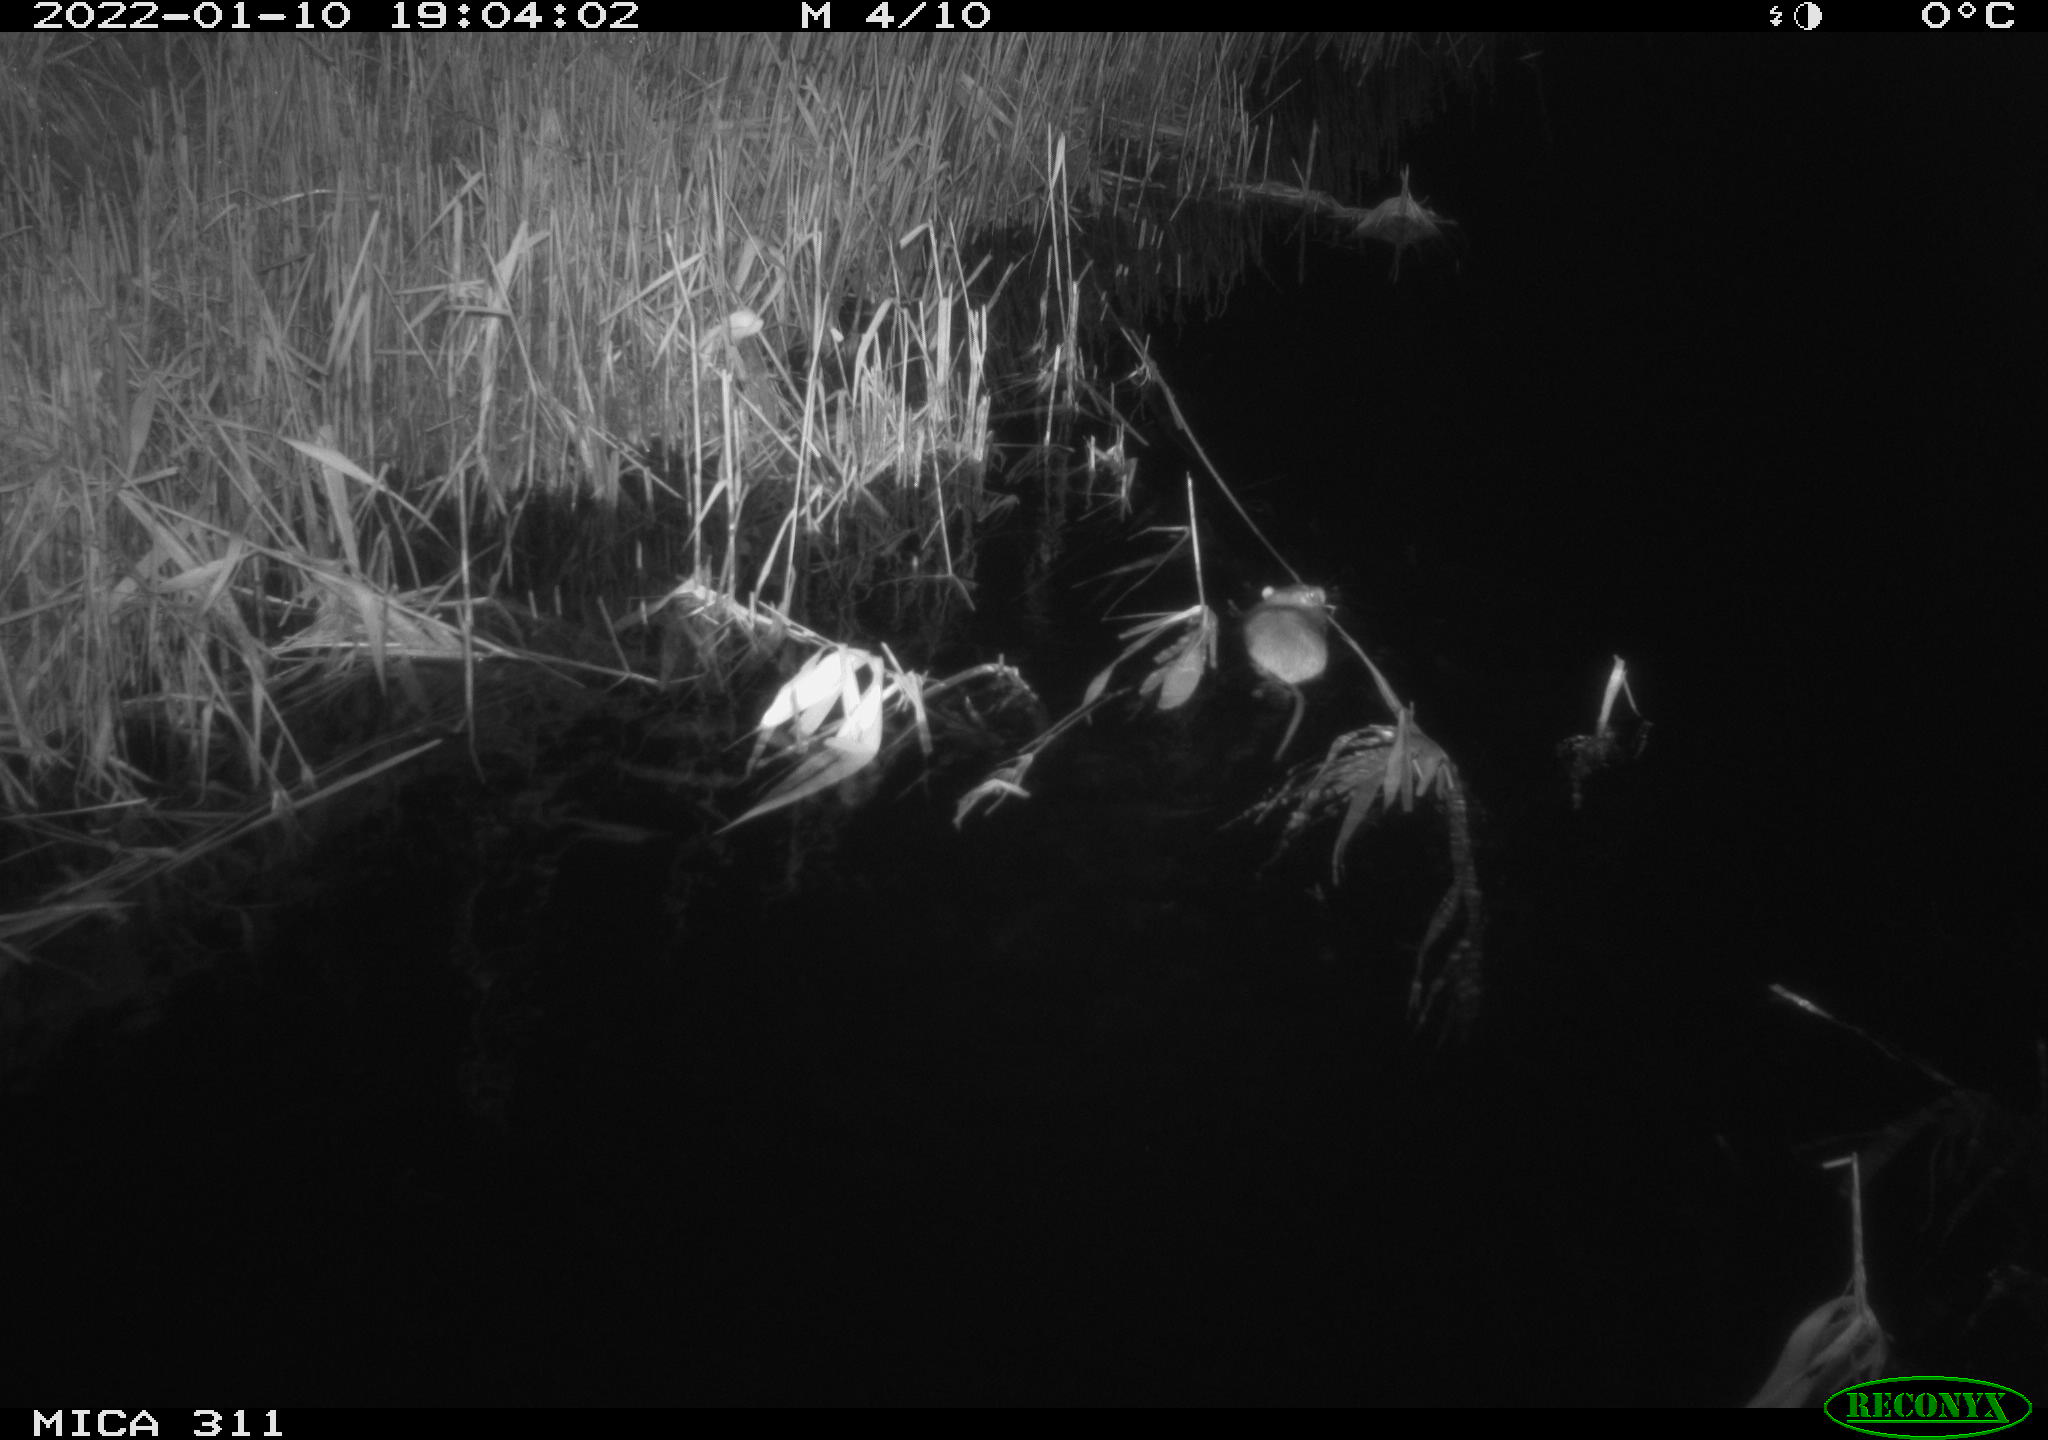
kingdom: Animalia
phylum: Chordata
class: Mammalia
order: Rodentia
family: Muridae
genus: Rattus
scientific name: Rattus norvegicus
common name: Brown rat
